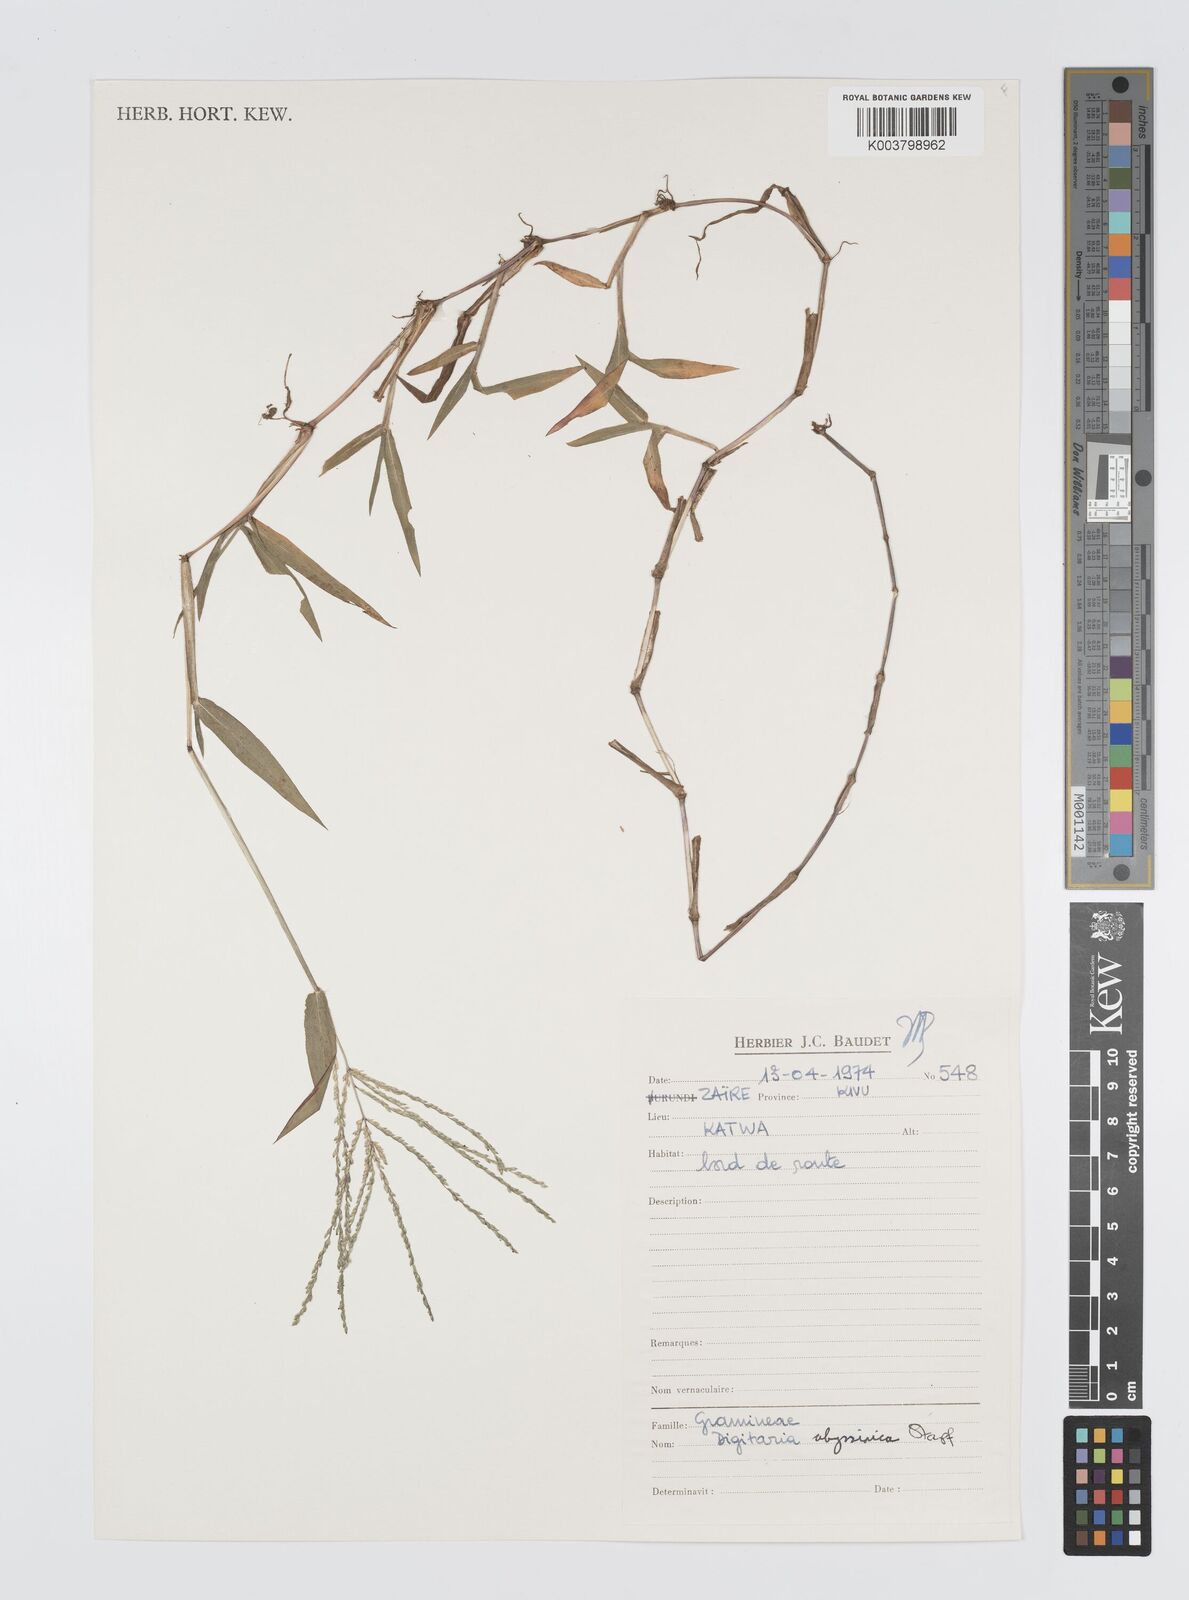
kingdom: Plantae
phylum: Tracheophyta
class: Liliopsida
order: Poales
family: Poaceae
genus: Digitaria
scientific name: Digitaria abyssinica
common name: African couchgrass
